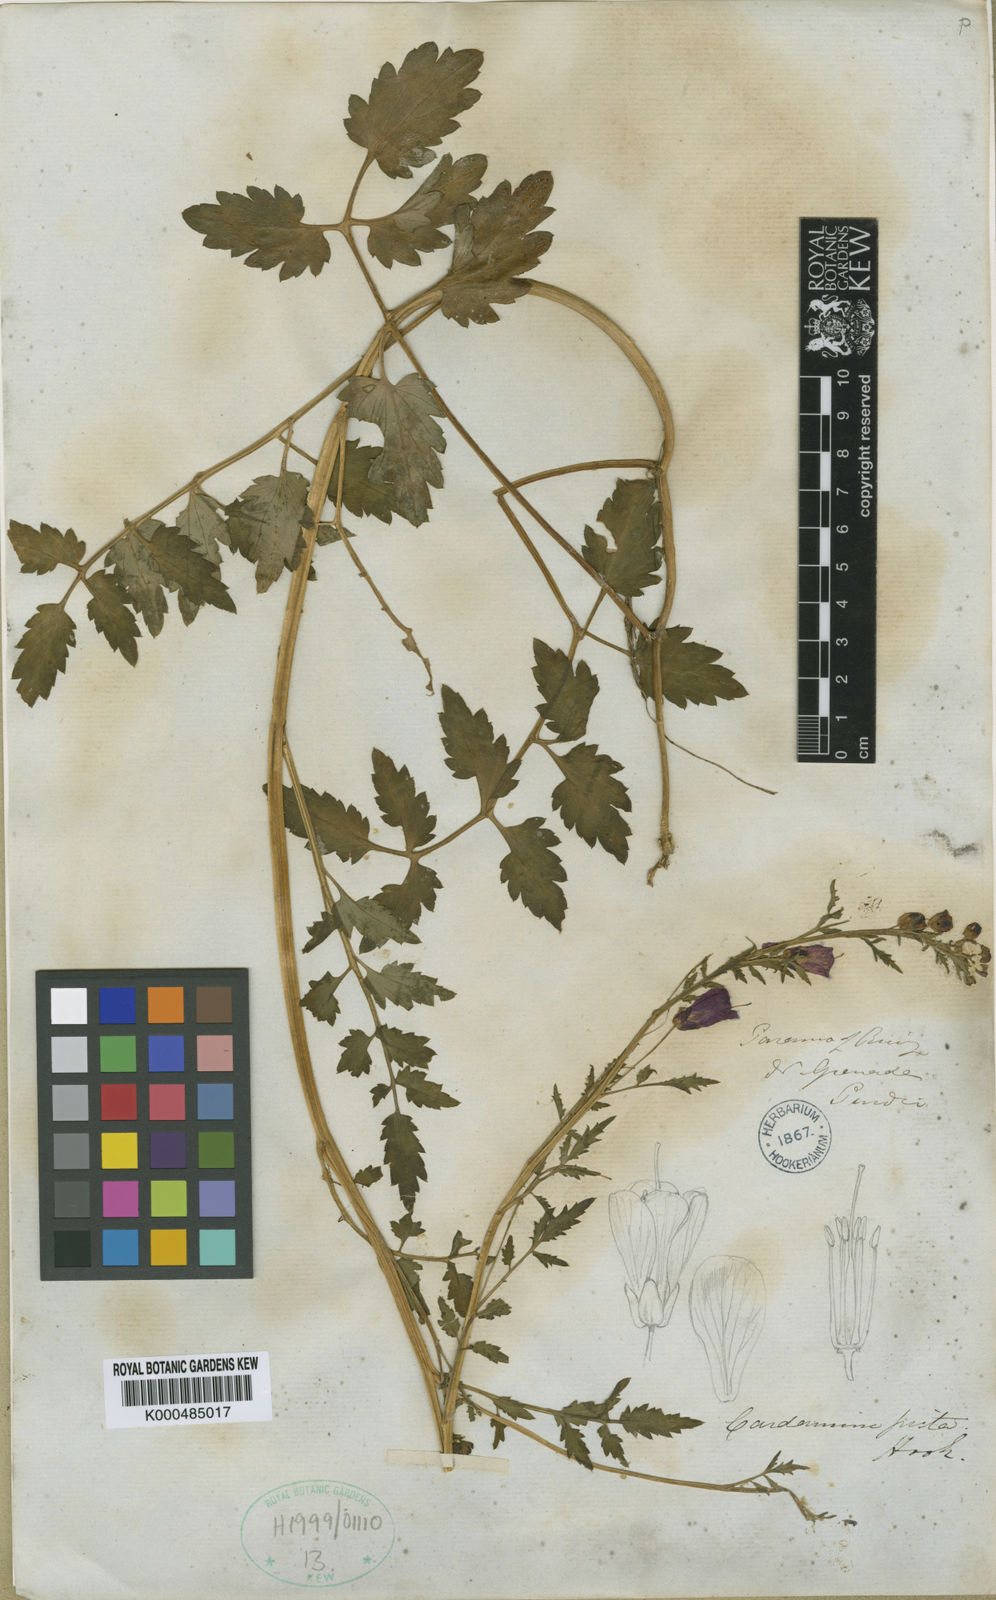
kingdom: Plantae
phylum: Tracheophyta
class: Magnoliopsida
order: Brassicales
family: Brassicaceae
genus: Cardamine
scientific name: Cardamine picta
